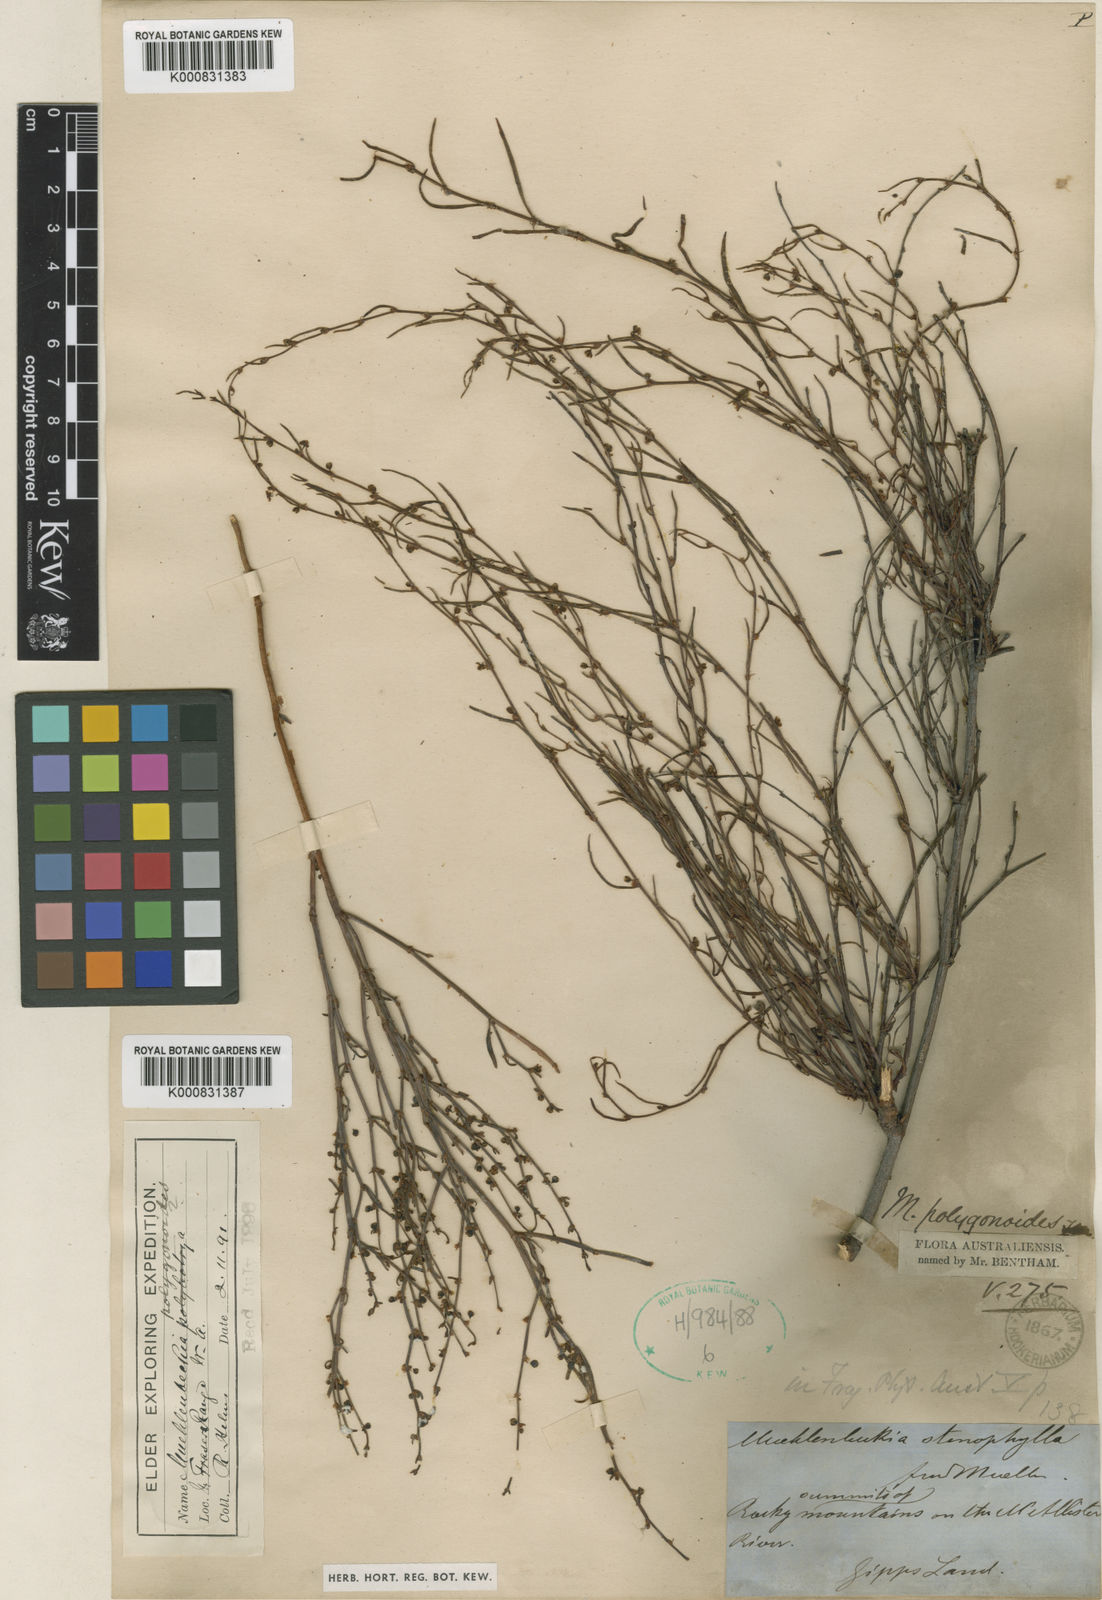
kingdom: Plantae
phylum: Tracheophyta
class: Magnoliopsida
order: Caryophyllales
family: Polygonaceae
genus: Muehlenbeckia
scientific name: Muehlenbeckia diclina
